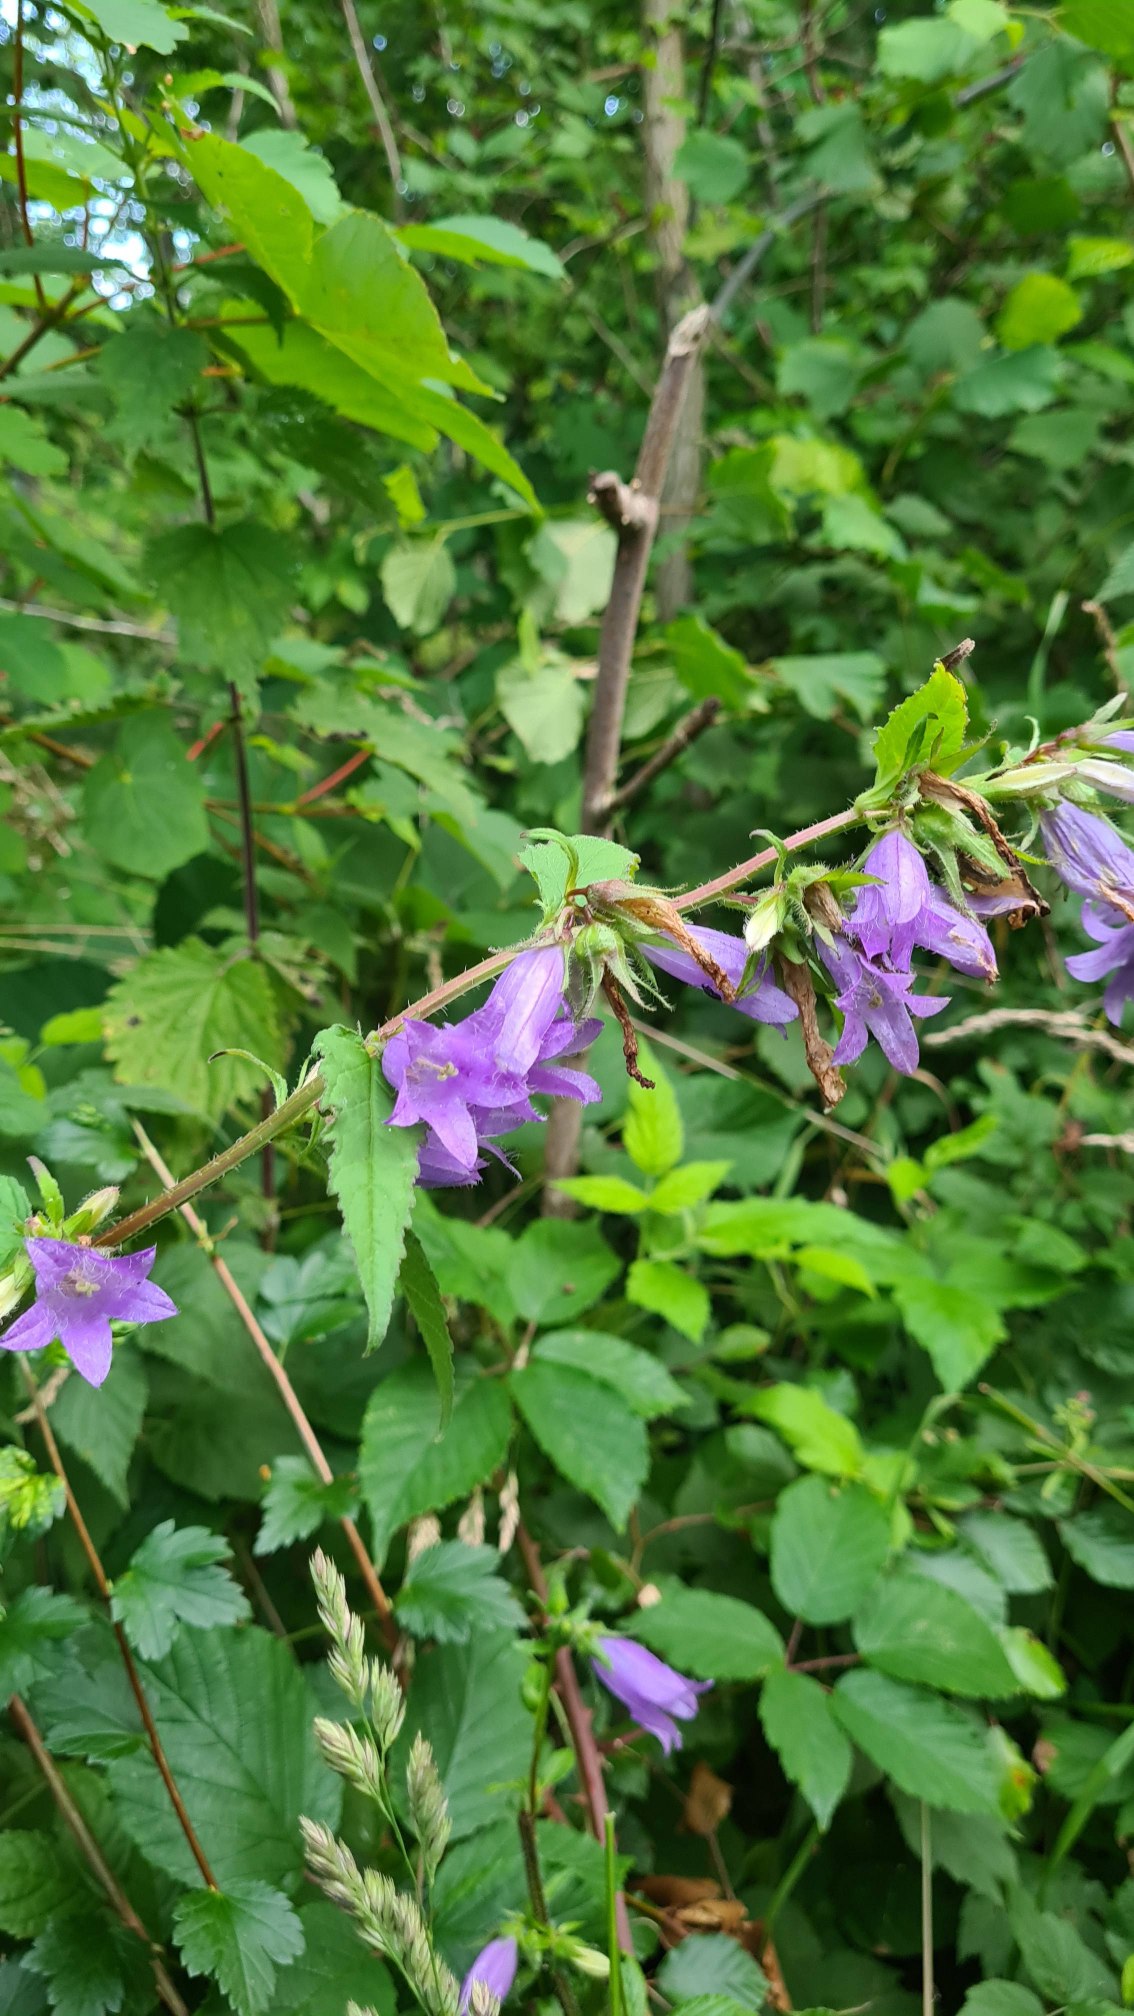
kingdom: Plantae
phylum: Tracheophyta
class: Magnoliopsida
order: Asterales
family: Campanulaceae
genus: Campanula
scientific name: Campanula trachelium
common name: Nælde-klokke
